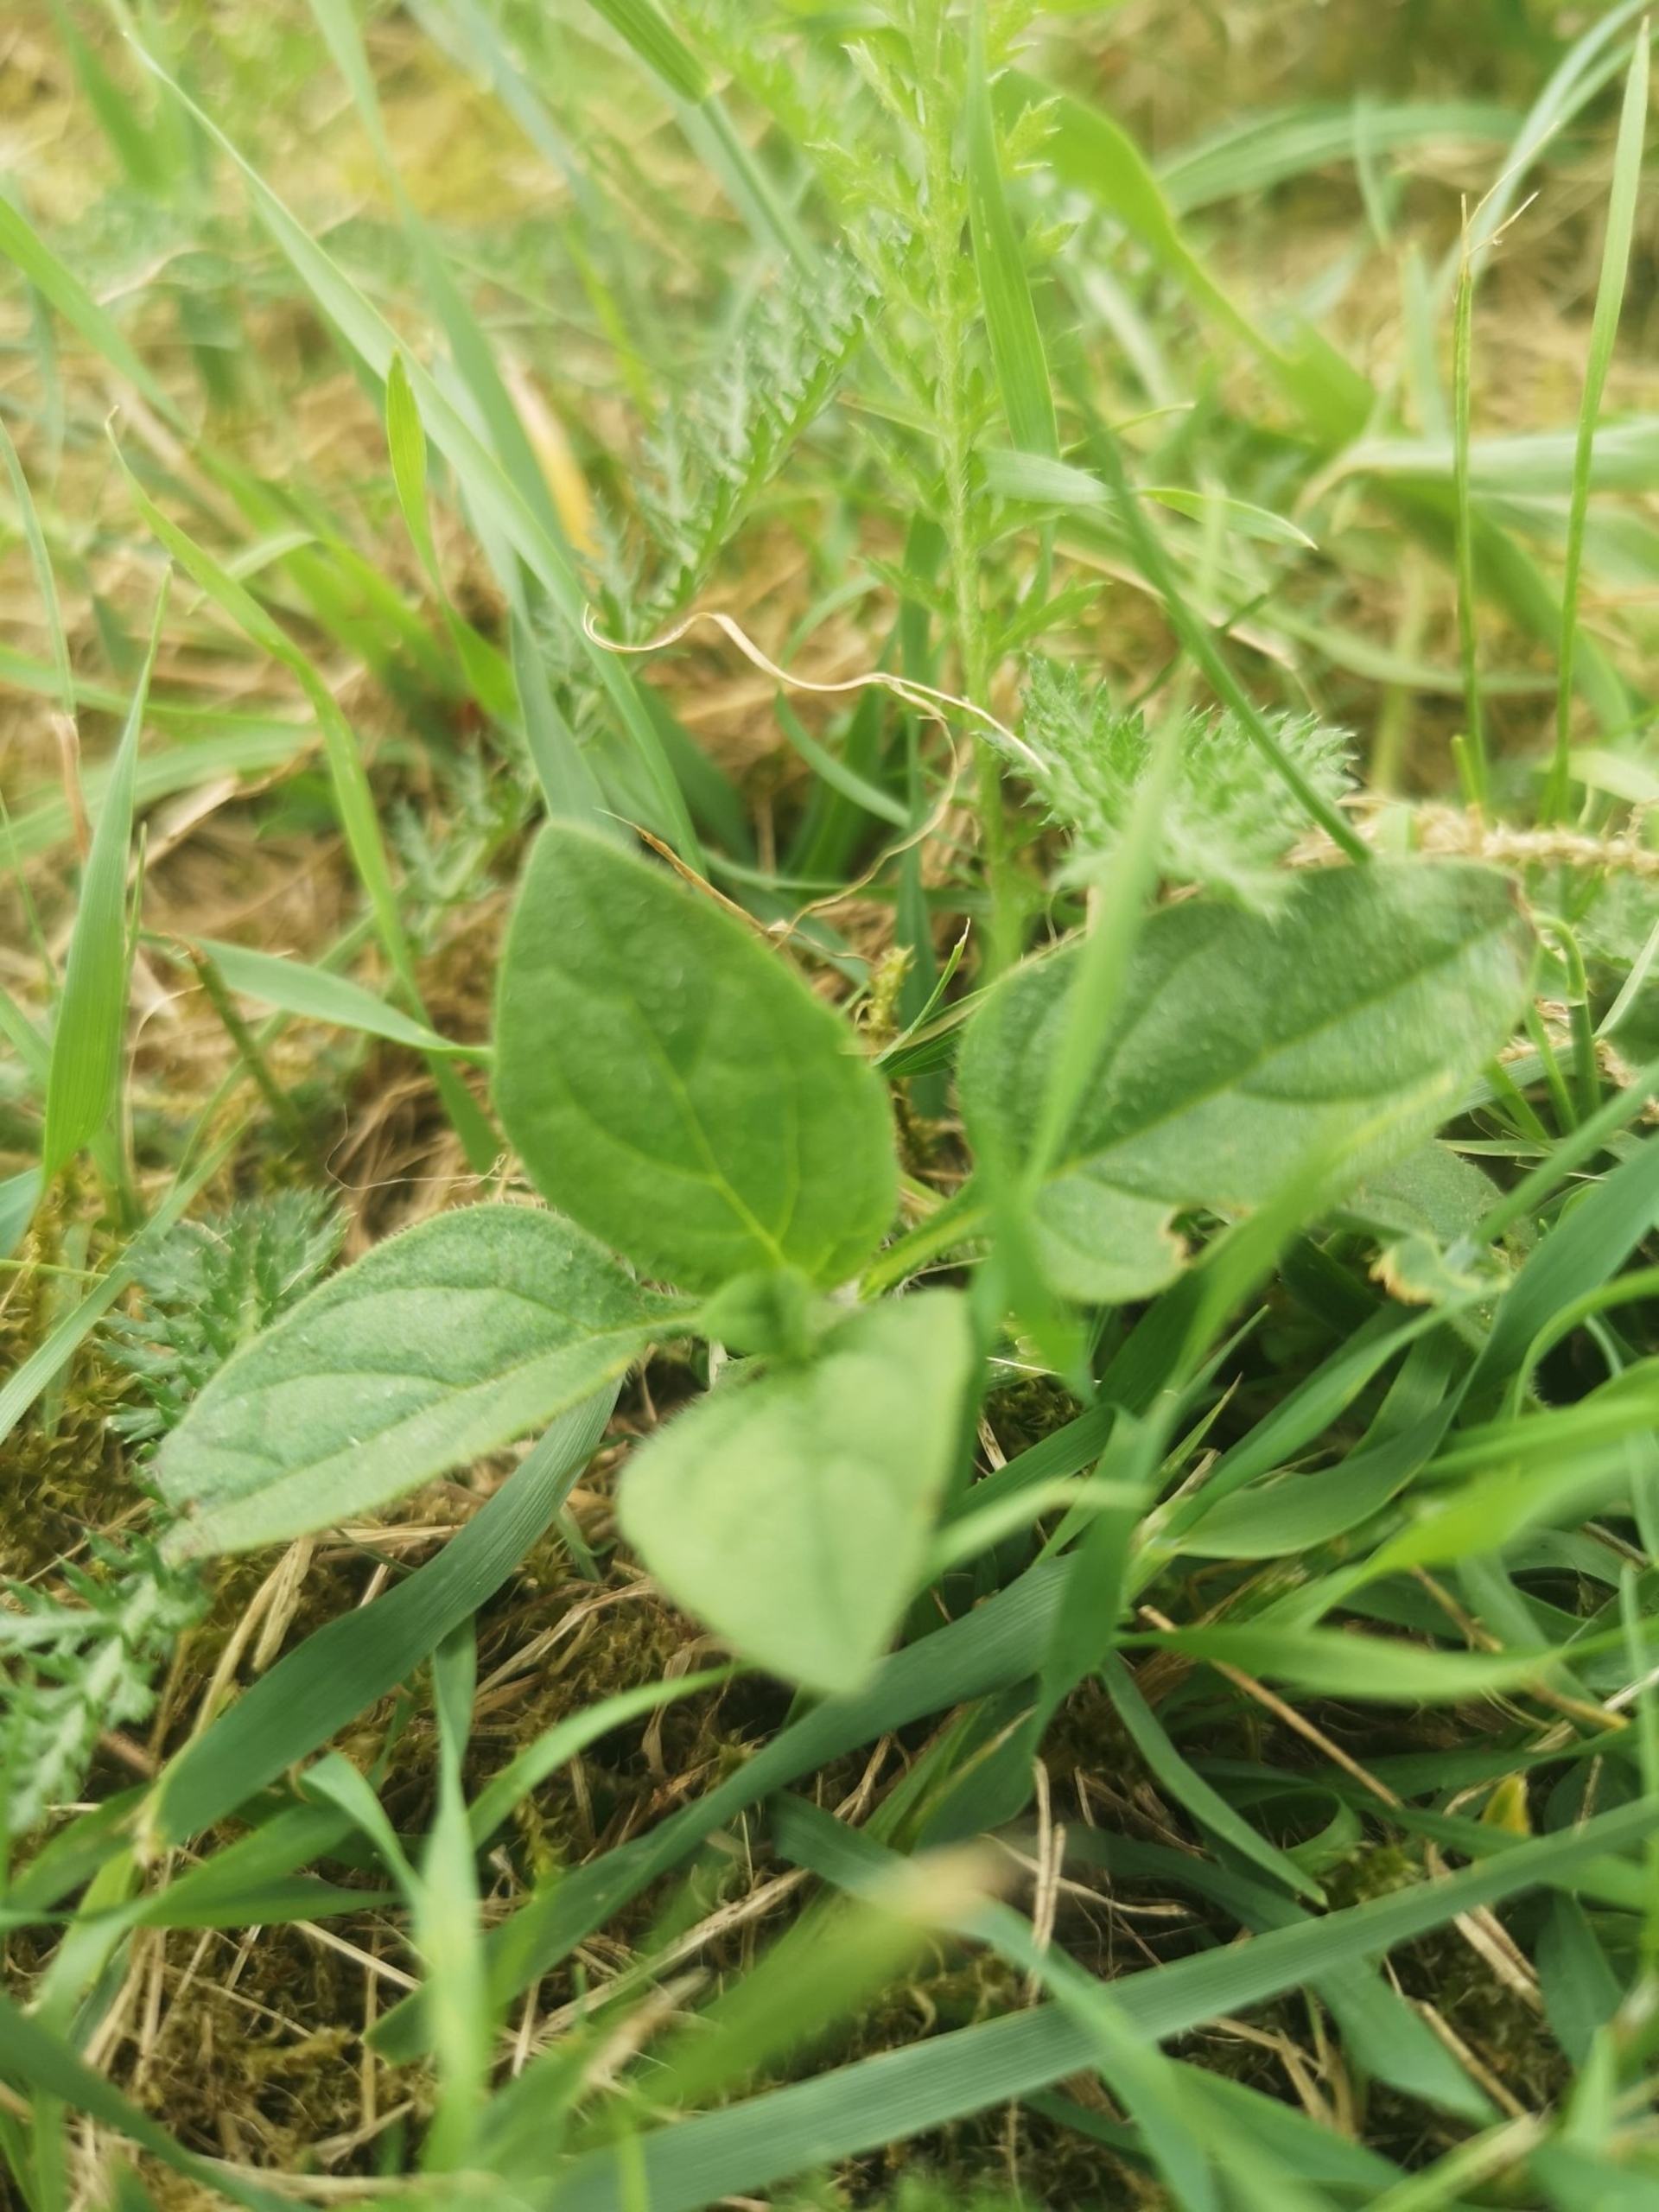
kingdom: Plantae
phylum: Tracheophyta
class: Magnoliopsida
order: Lamiales
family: Lamiaceae
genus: Prunella
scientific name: Prunella vulgaris
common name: Almindelig brunelle
